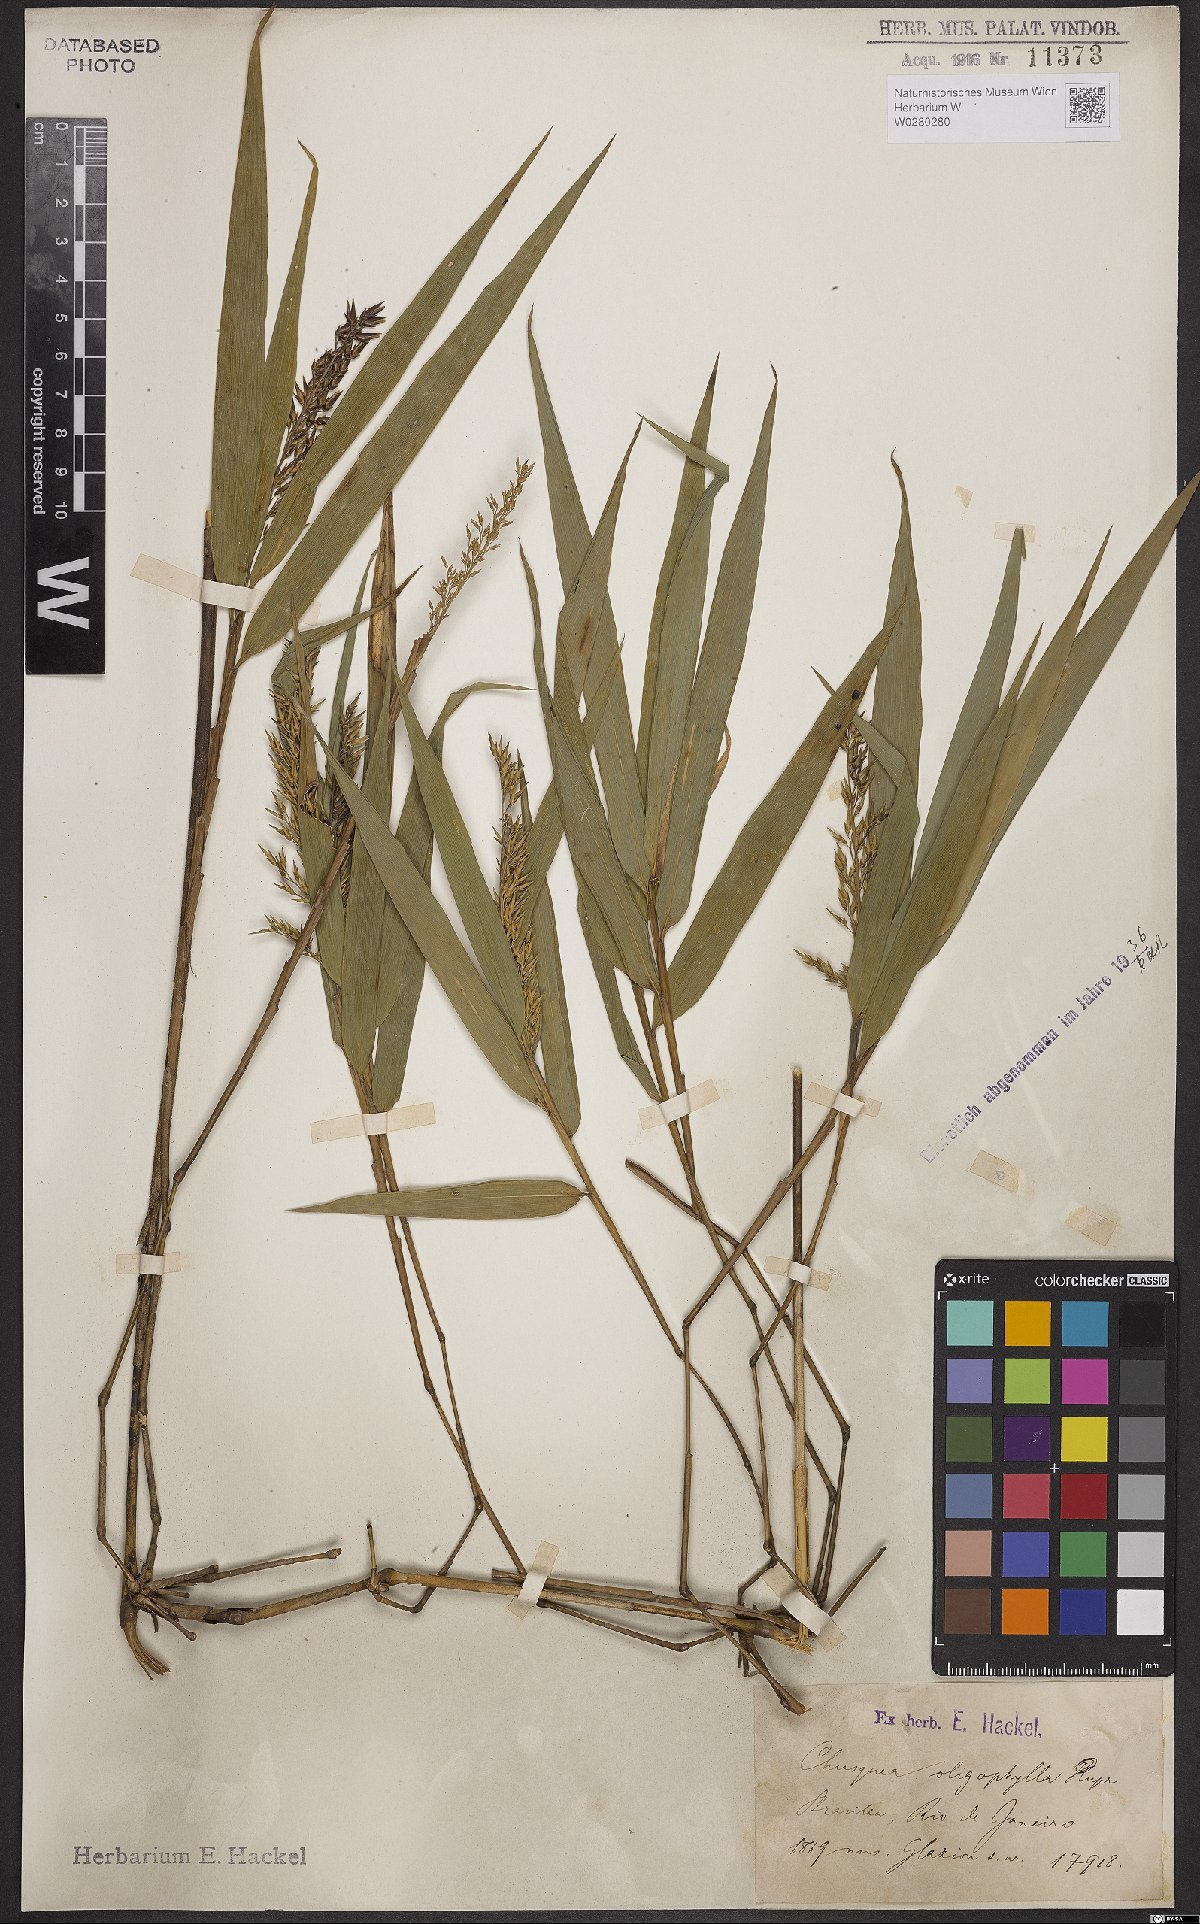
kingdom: Plantae
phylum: Tracheophyta
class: Liliopsida
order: Poales
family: Poaceae
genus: Chusquea
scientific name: Chusquea oligophylla
